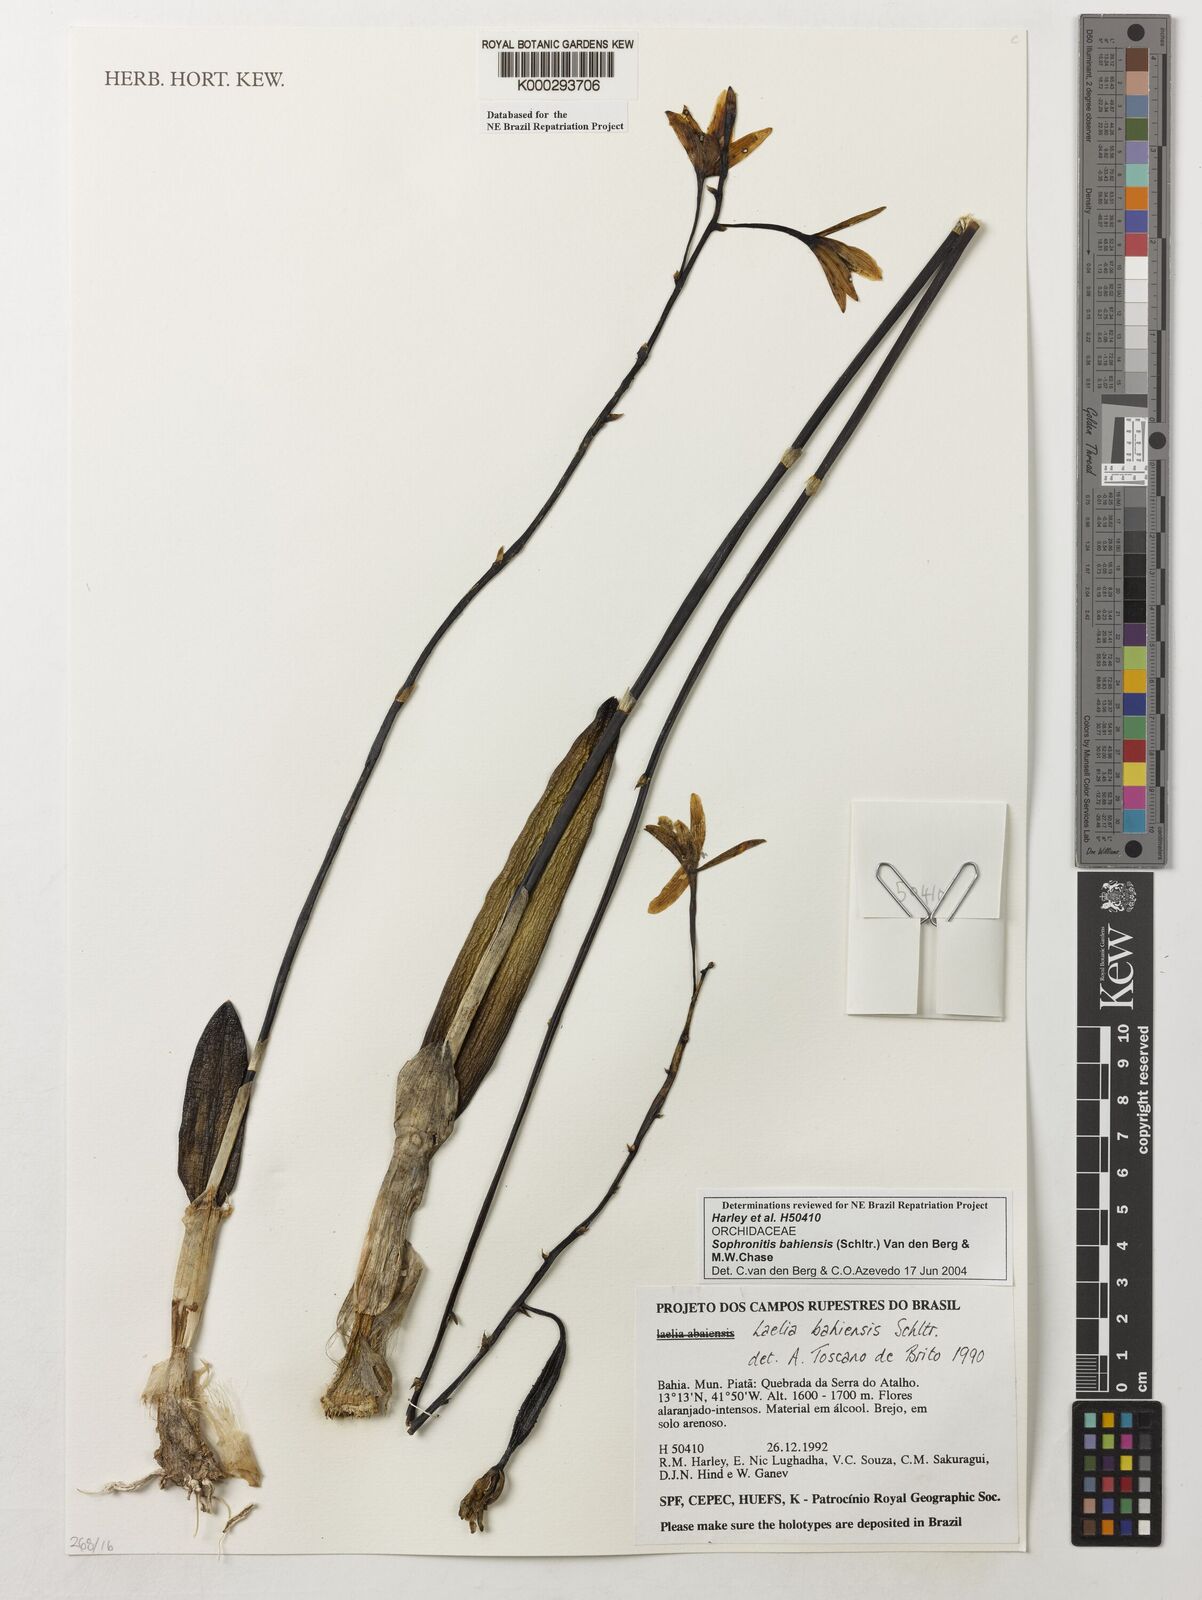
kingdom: Plantae
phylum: Tracheophyta
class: Liliopsida
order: Asparagales
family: Orchidaceae
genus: Cattleya
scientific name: Cattleya luetzelburgii
